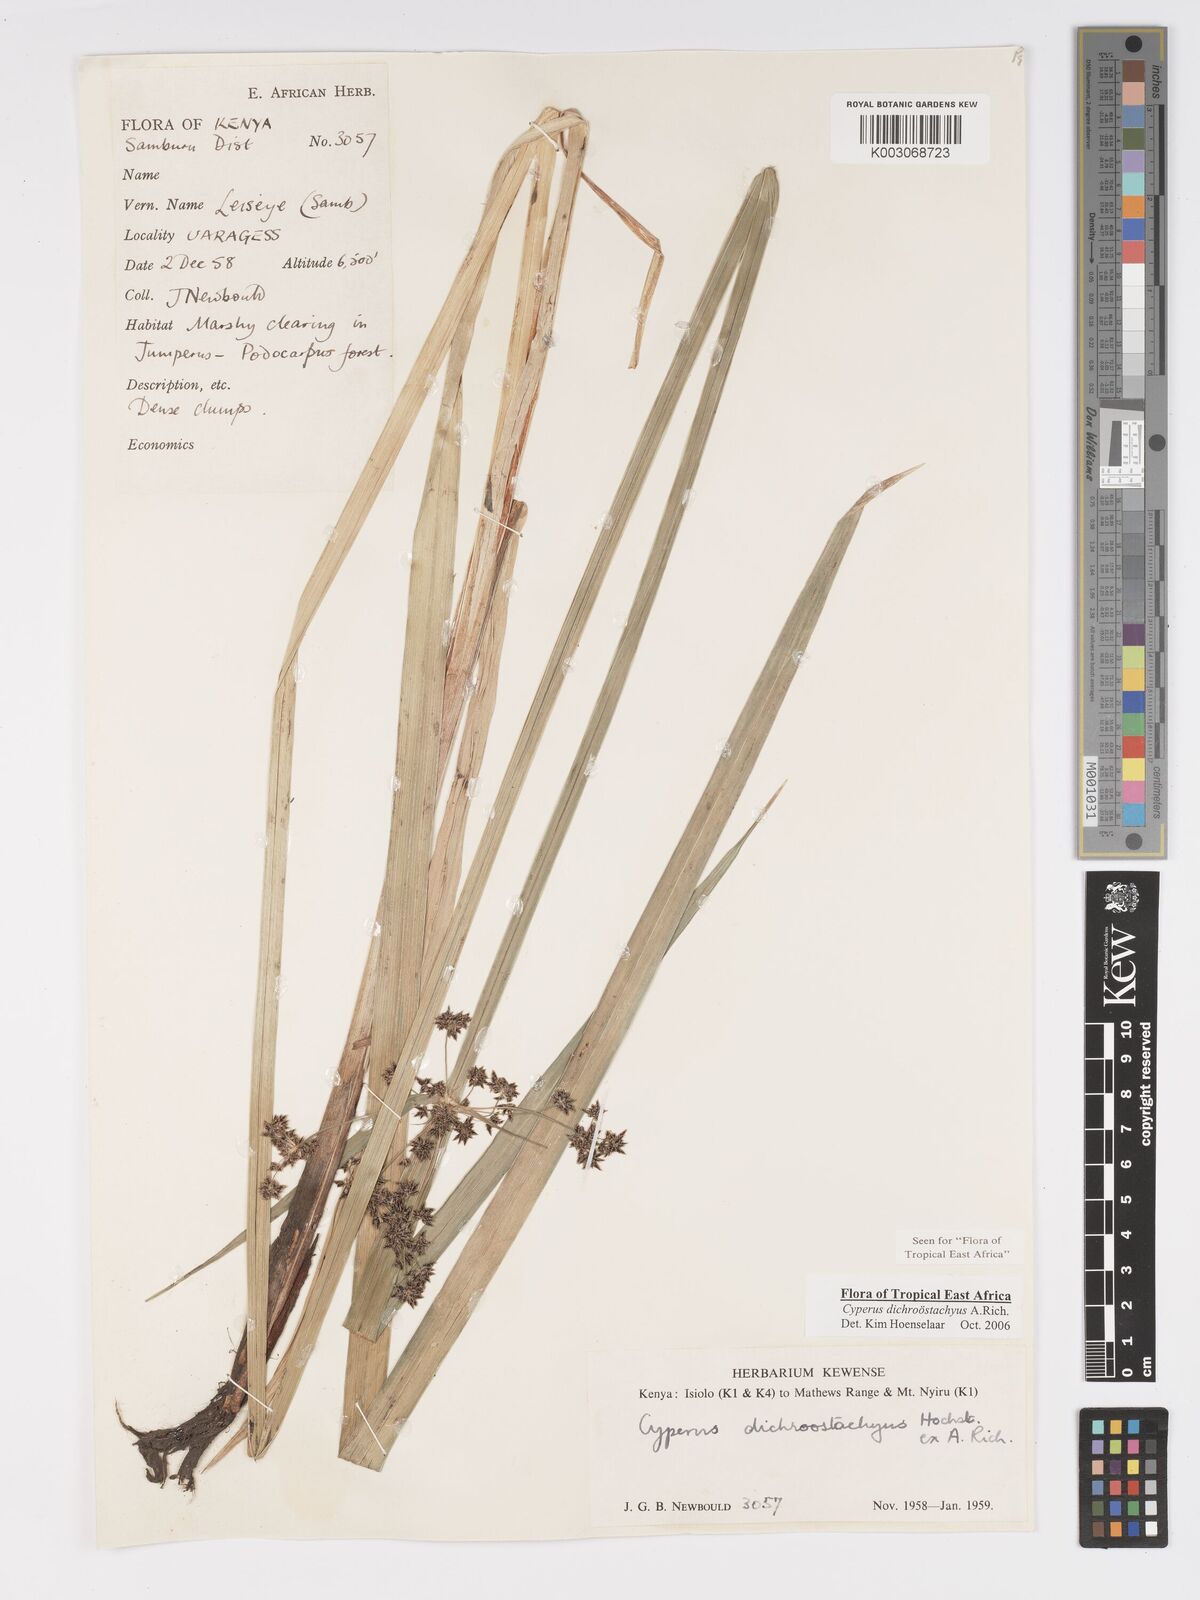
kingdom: Plantae
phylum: Tracheophyta
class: Liliopsida
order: Poales
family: Cyperaceae
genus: Cyperus
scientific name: Cyperus dichrostachyus
